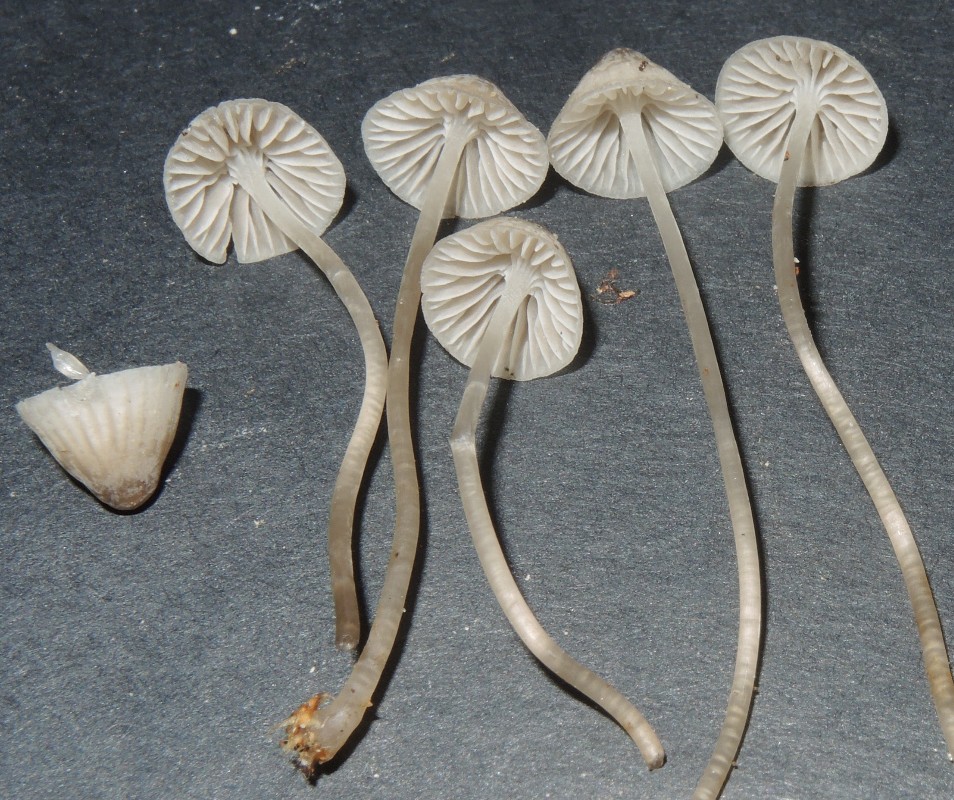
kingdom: Fungi
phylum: Basidiomycota
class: Agaricomycetes
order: Agaricales
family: Mycenaceae
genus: Mycena
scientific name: Mycena cinerella
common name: mel-huesvamp
